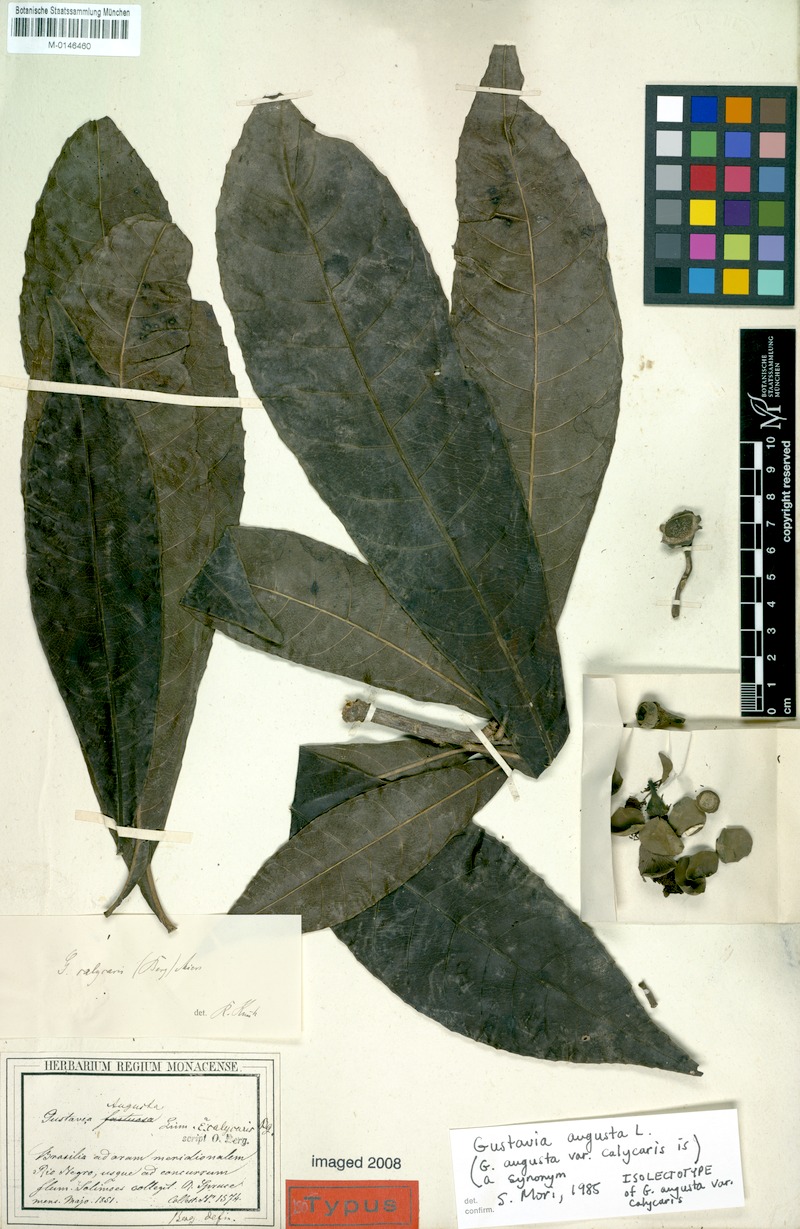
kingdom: Plantae
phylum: Tracheophyta
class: Magnoliopsida
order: Ericales
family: Lecythidaceae
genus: Gustavia
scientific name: Gustavia augusta
